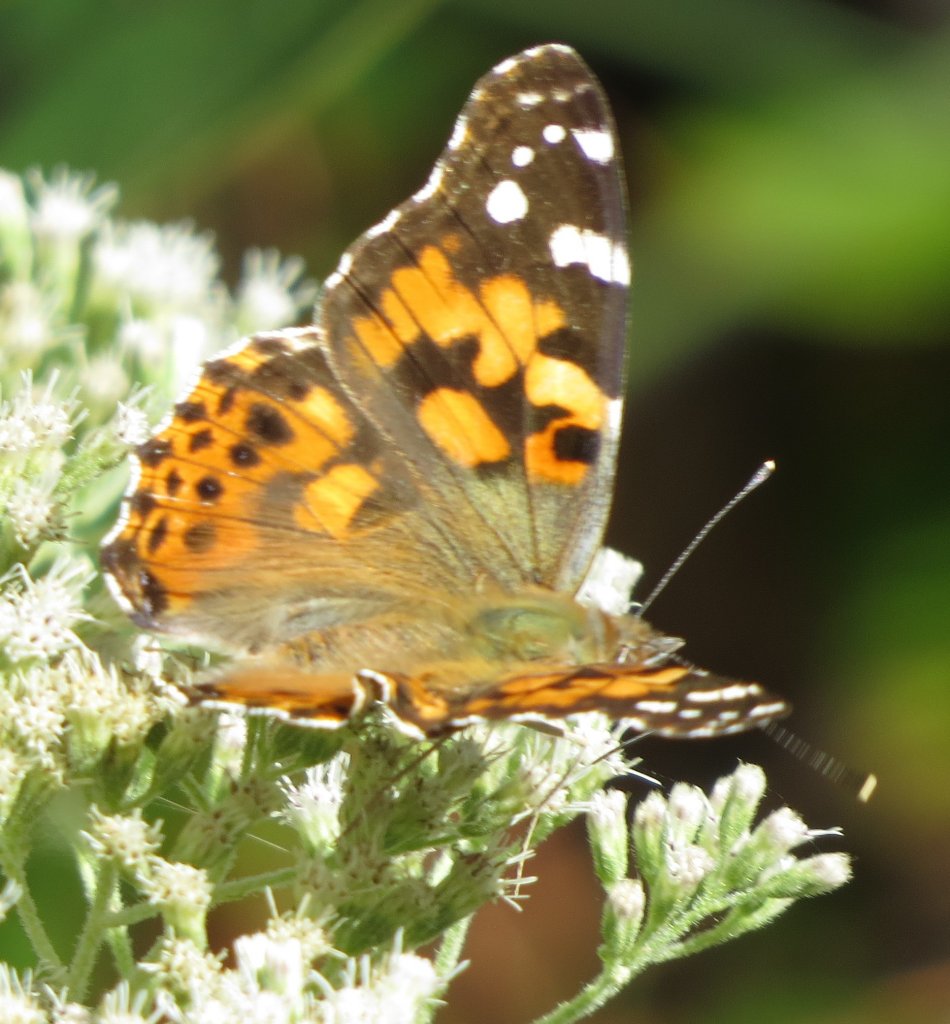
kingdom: Animalia
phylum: Arthropoda
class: Insecta
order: Lepidoptera
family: Nymphalidae
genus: Vanessa
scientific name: Vanessa cardui
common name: Painted Lady
